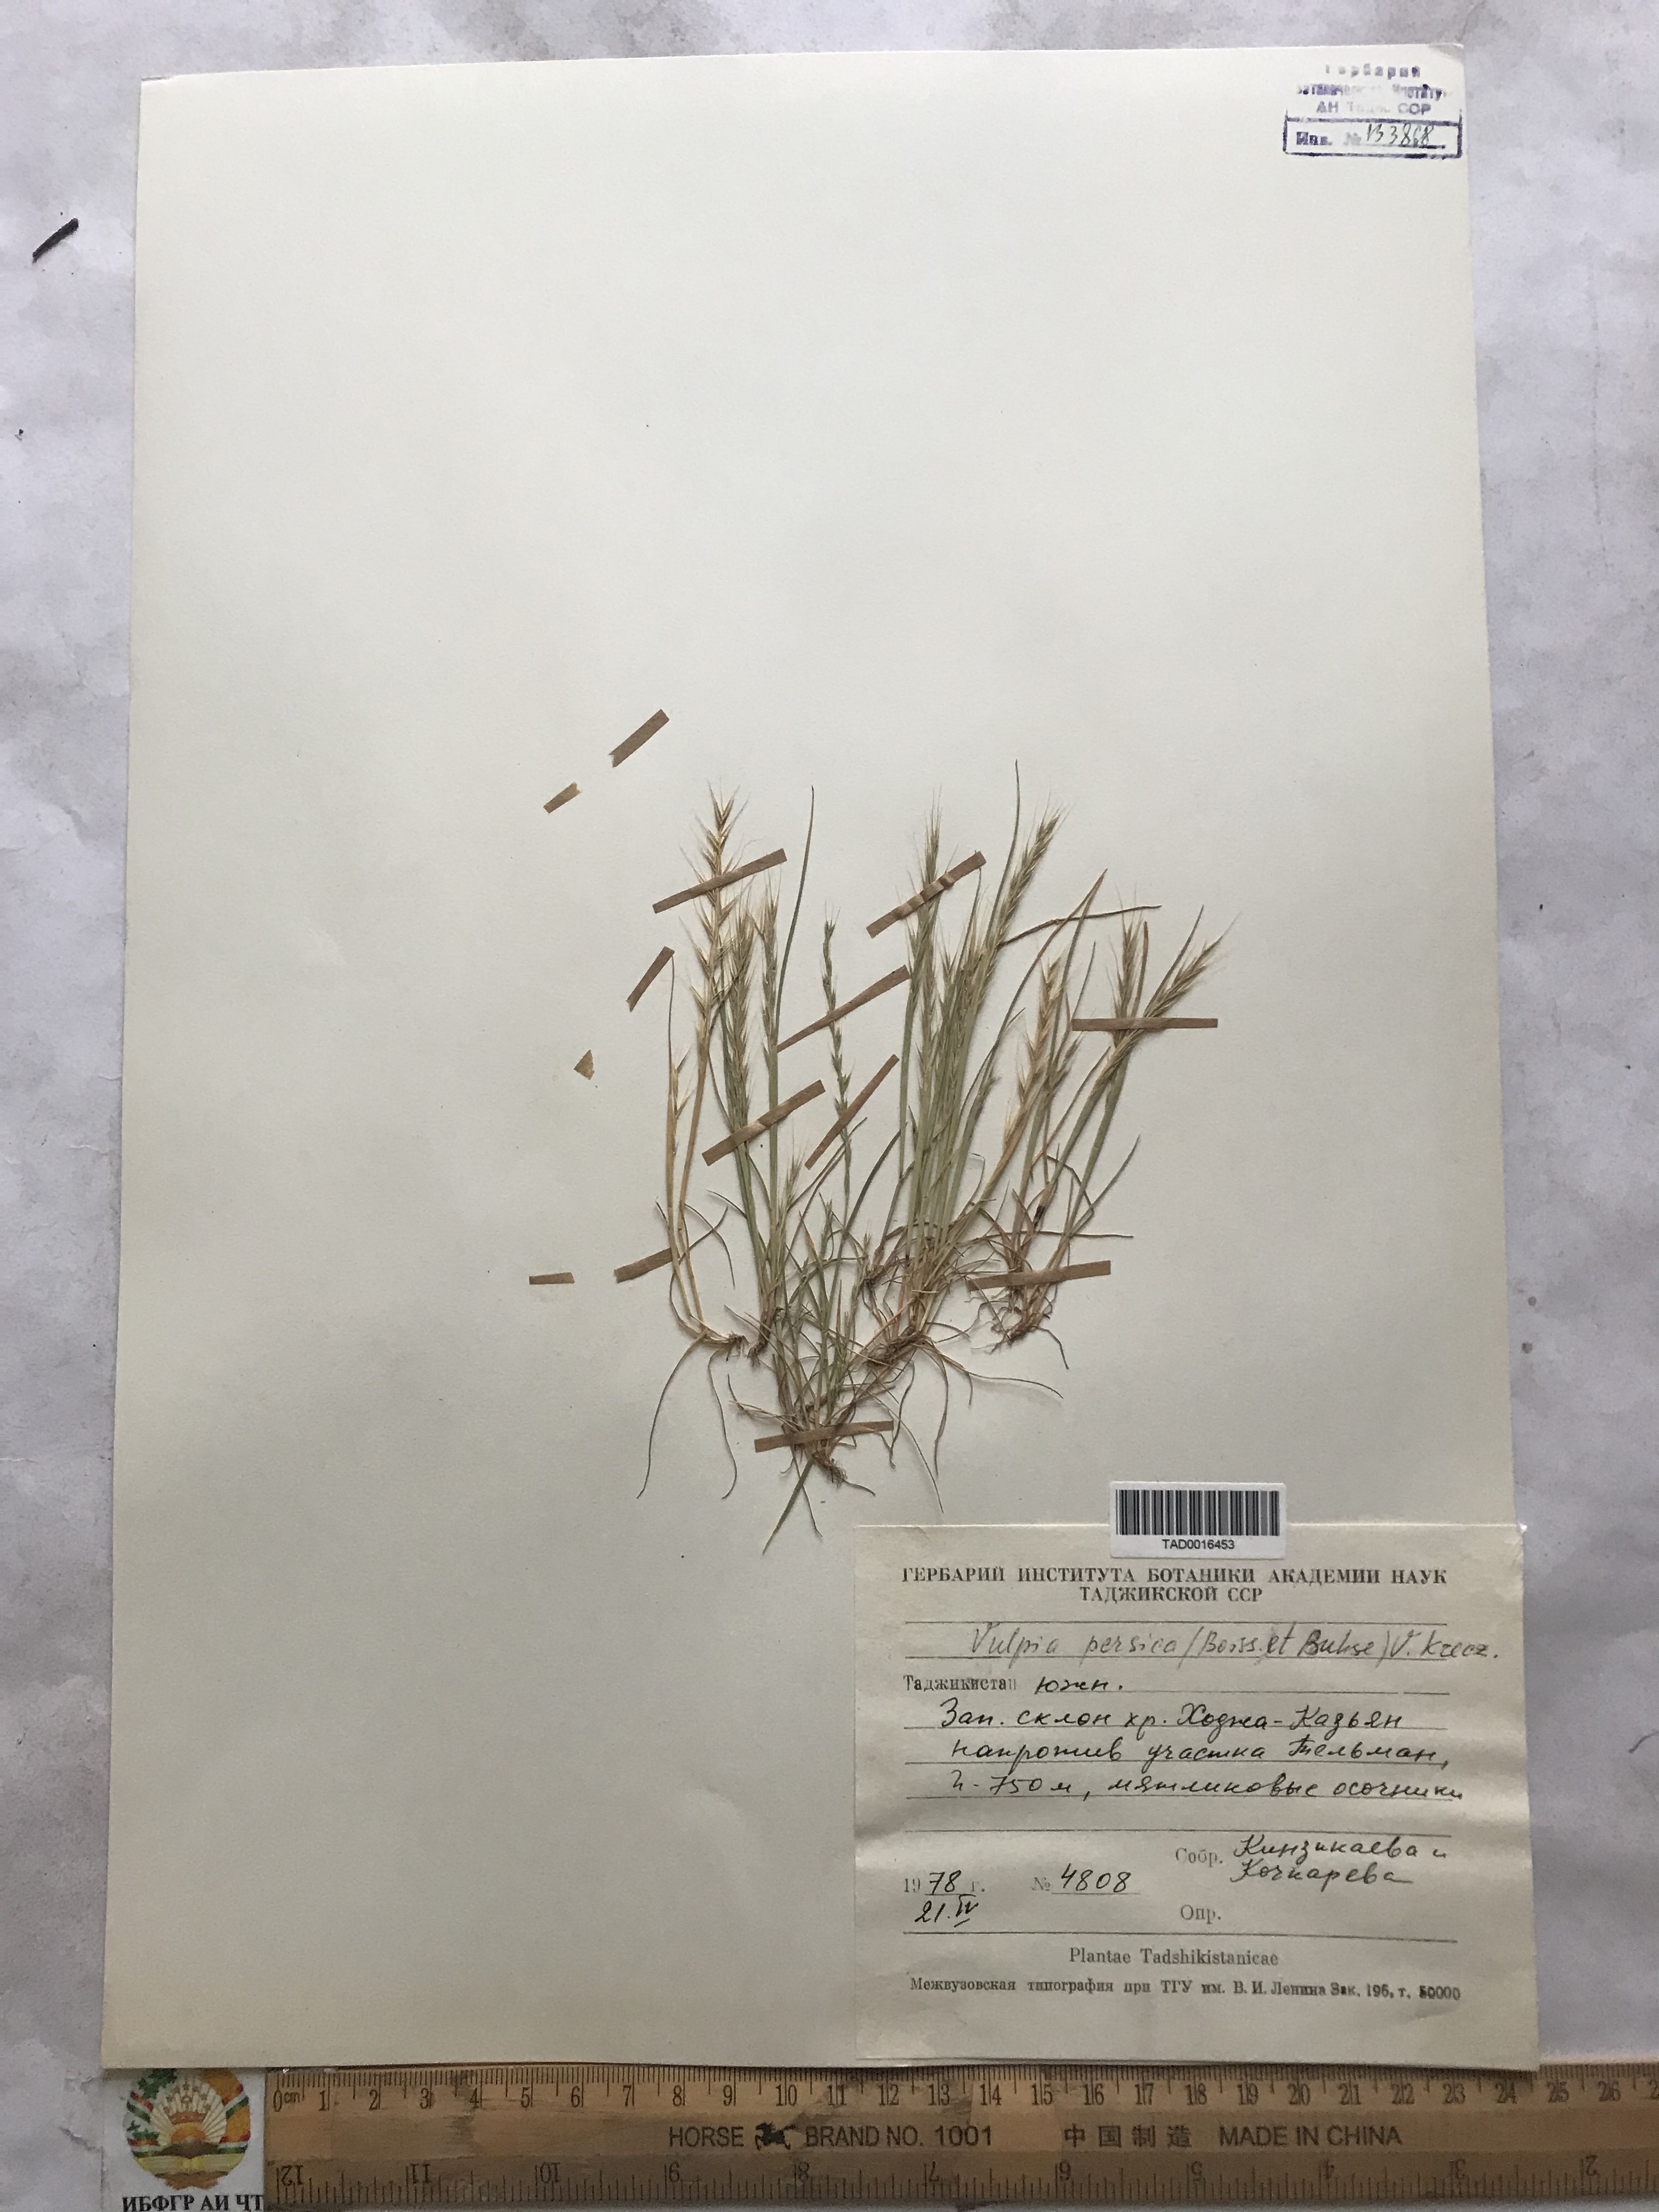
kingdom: Plantae
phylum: Tracheophyta
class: Liliopsida
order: Poales
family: Poaceae
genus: Festuca
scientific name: Festuca Vulpia persica
